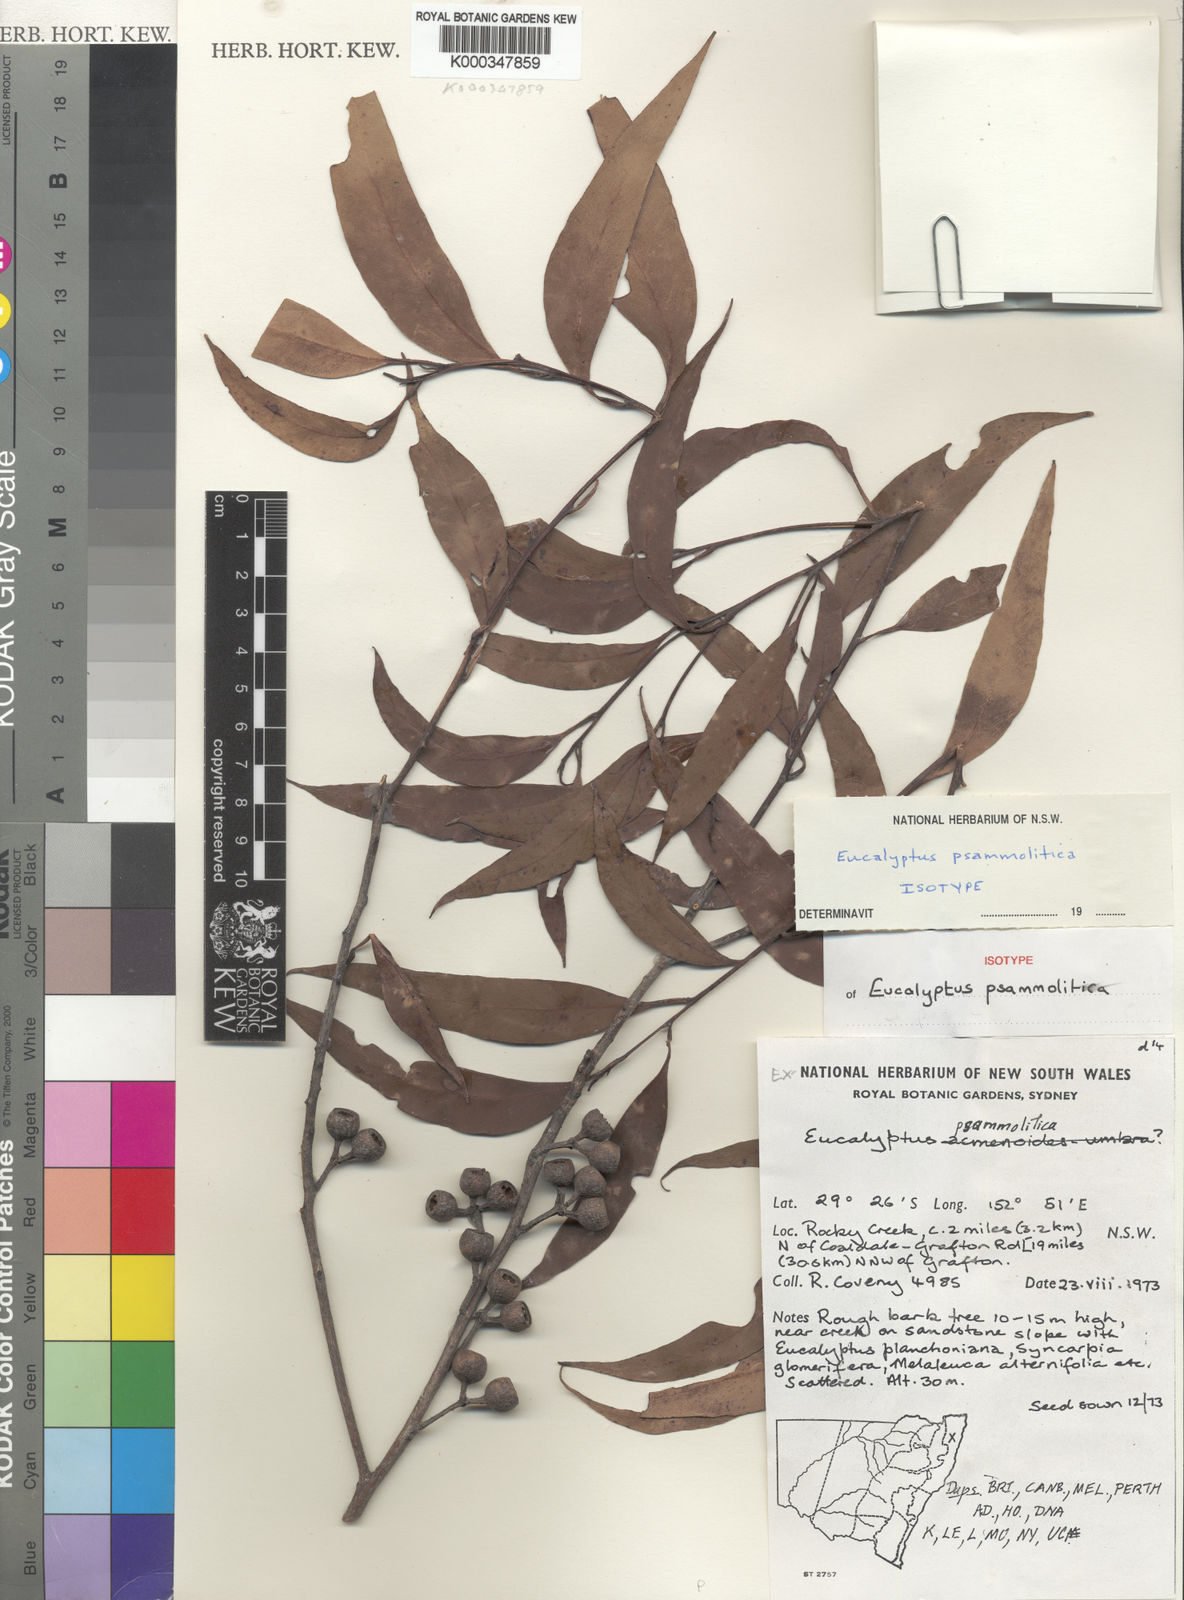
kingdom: Plantae
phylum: Tracheophyta
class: Magnoliopsida
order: Myrtales
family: Myrtaceae
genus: Eucalyptus
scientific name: Eucalyptus
